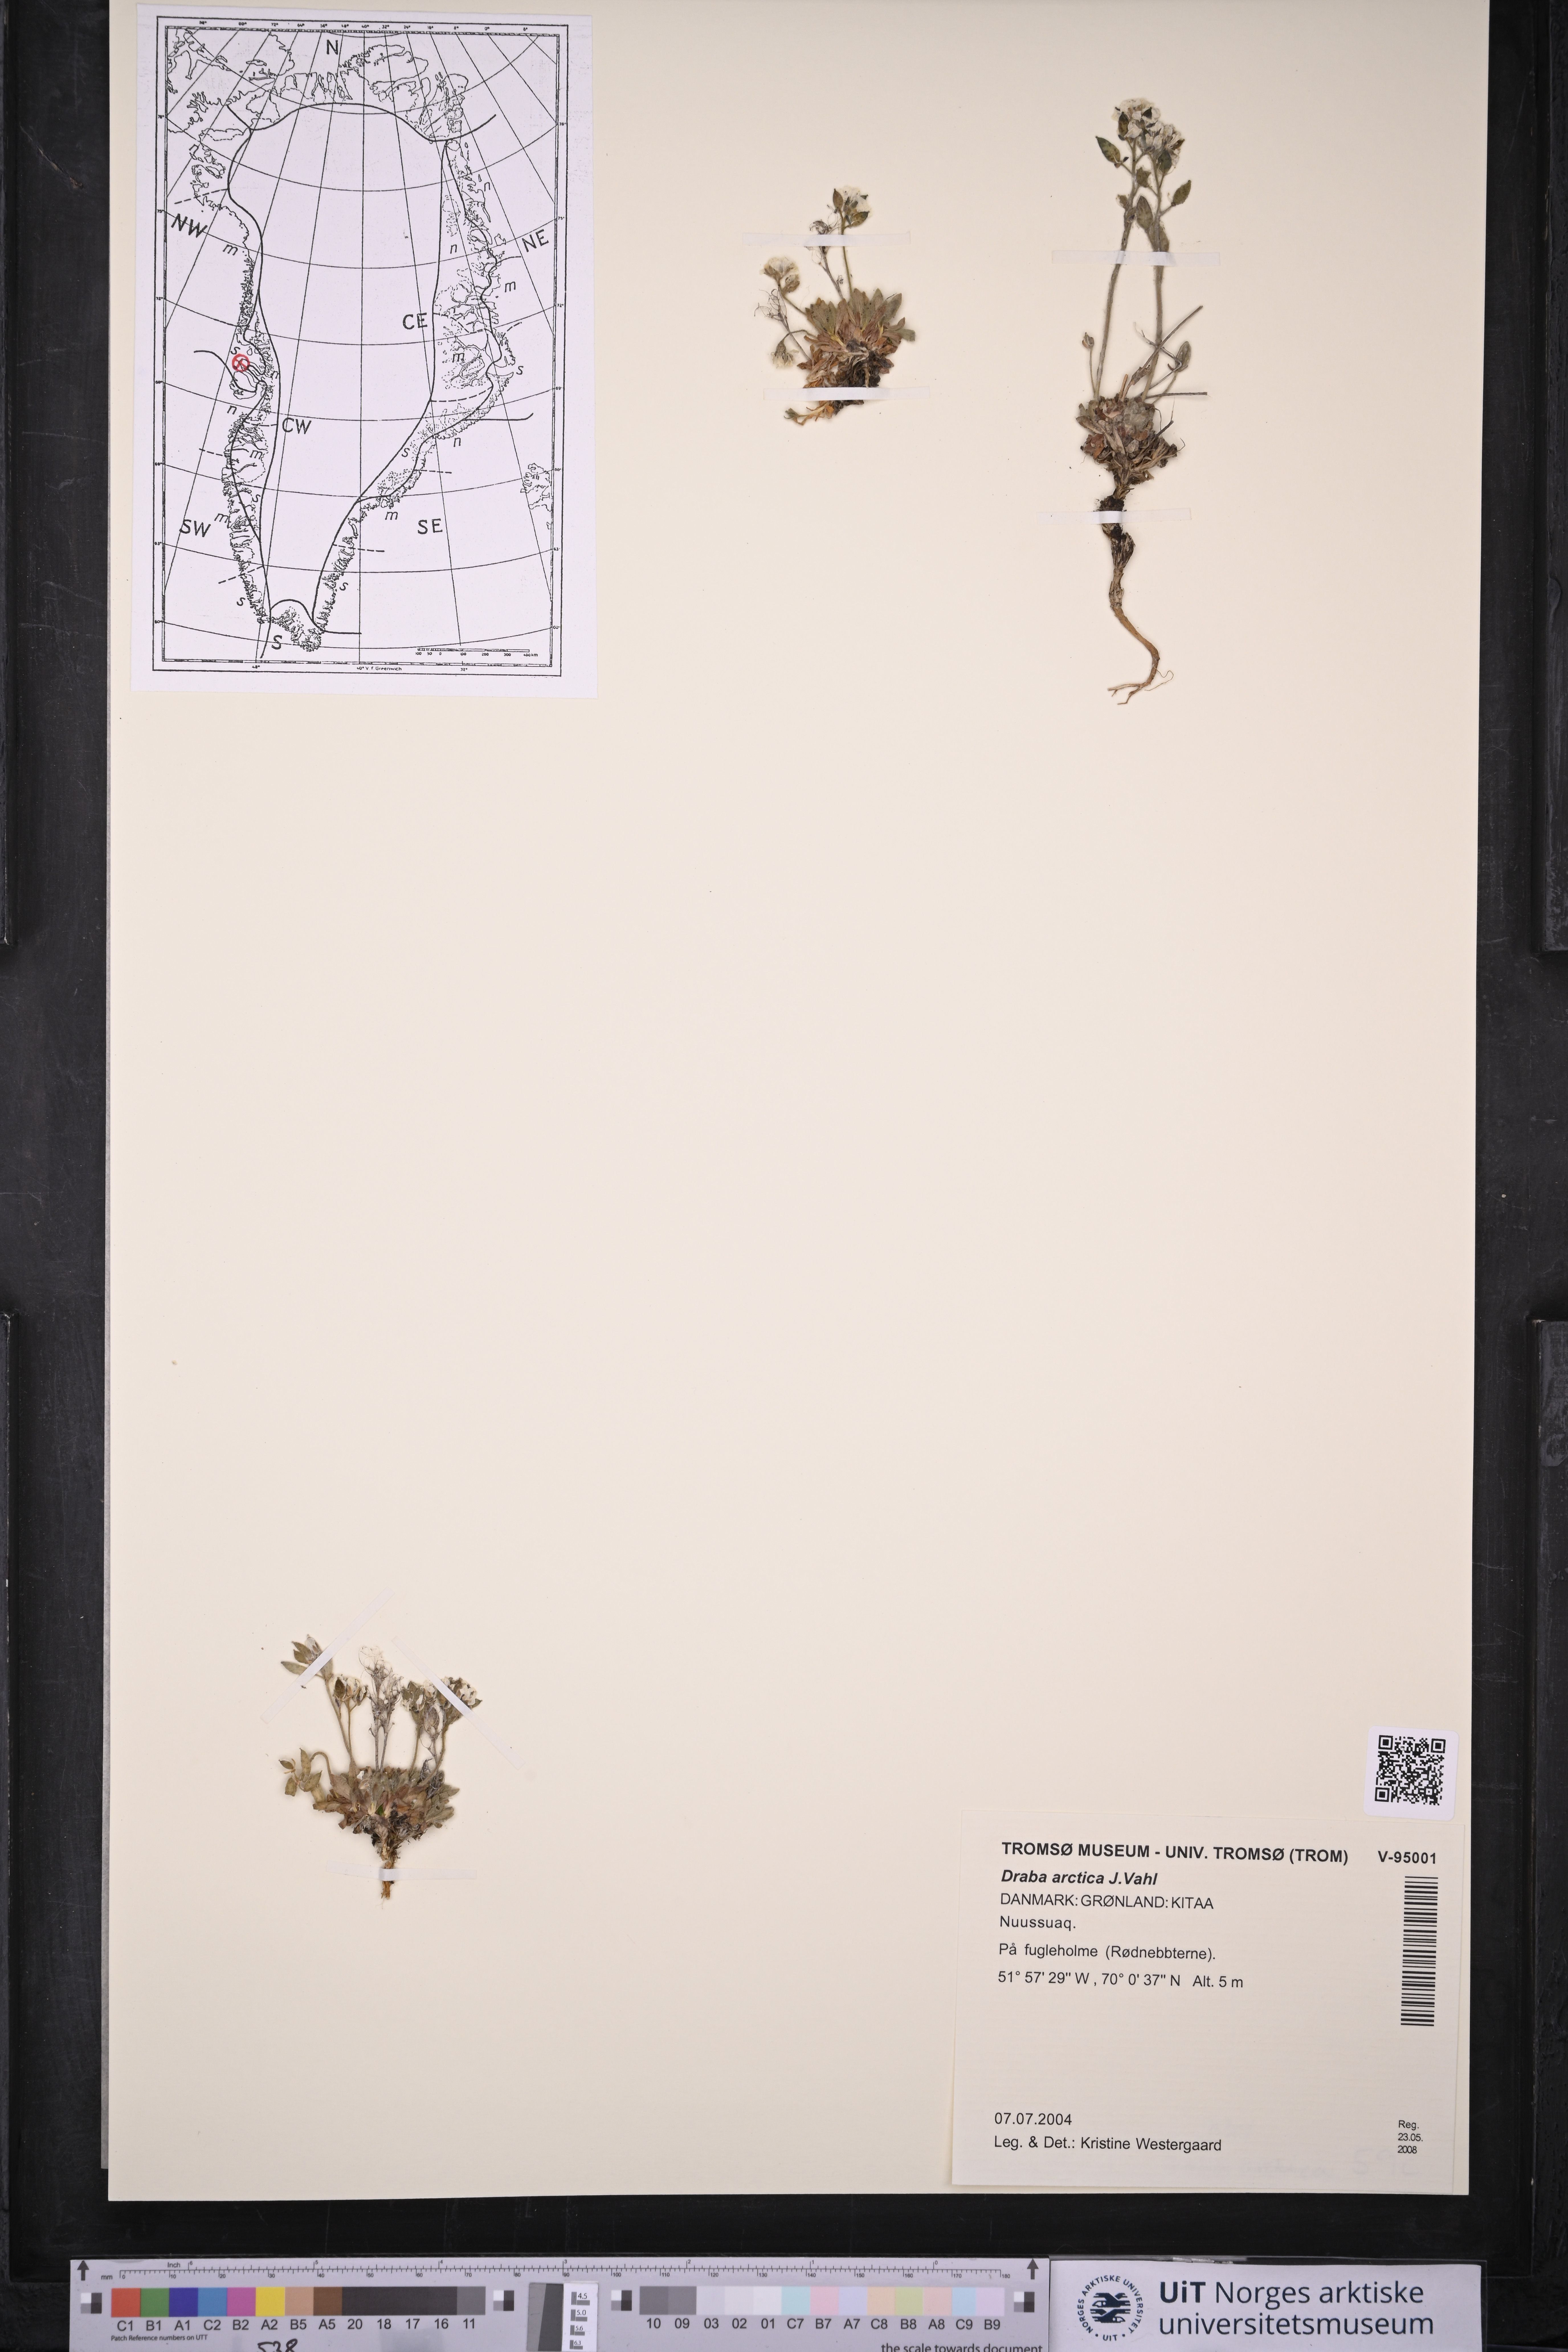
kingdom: Plantae
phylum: Tracheophyta
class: Magnoliopsida
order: Brassicales
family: Brassicaceae
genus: Draba
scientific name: Draba arctica
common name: Arctic draba
